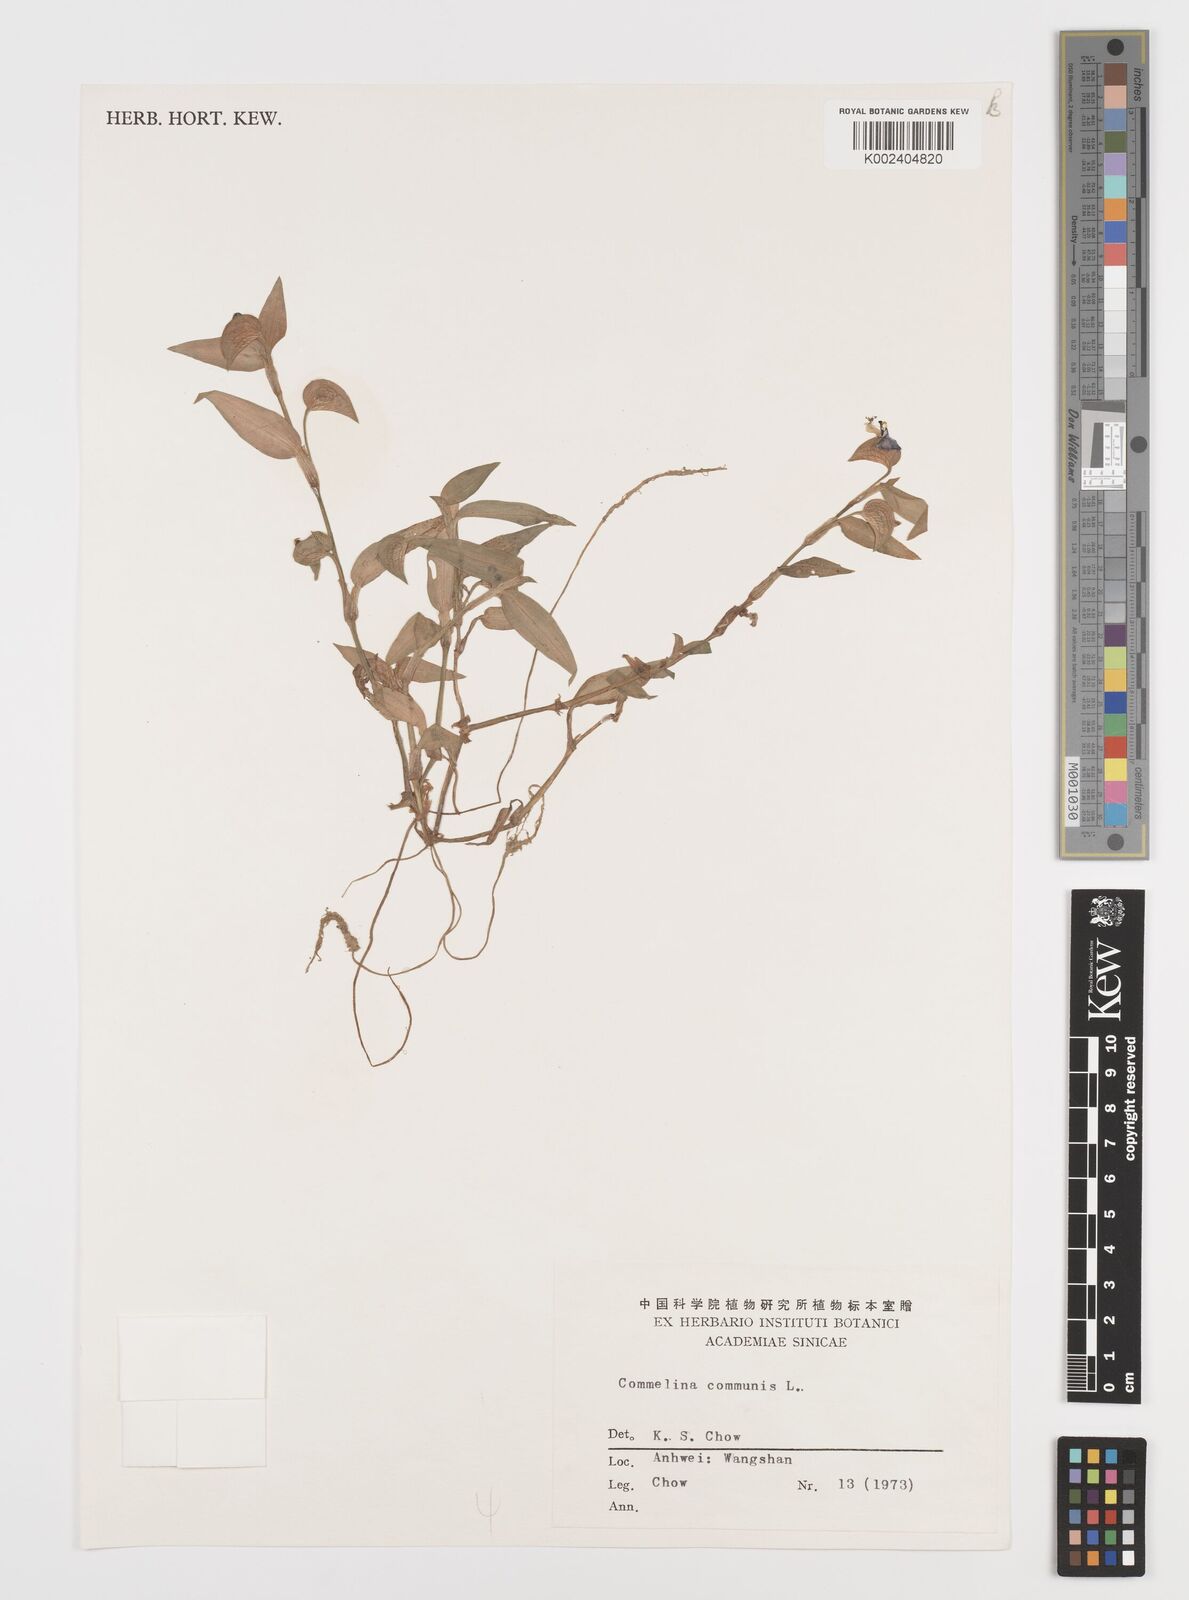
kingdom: Plantae
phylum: Tracheophyta
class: Liliopsida
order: Commelinales
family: Commelinaceae
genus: Commelina
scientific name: Commelina communis
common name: Asiatic dayflower
